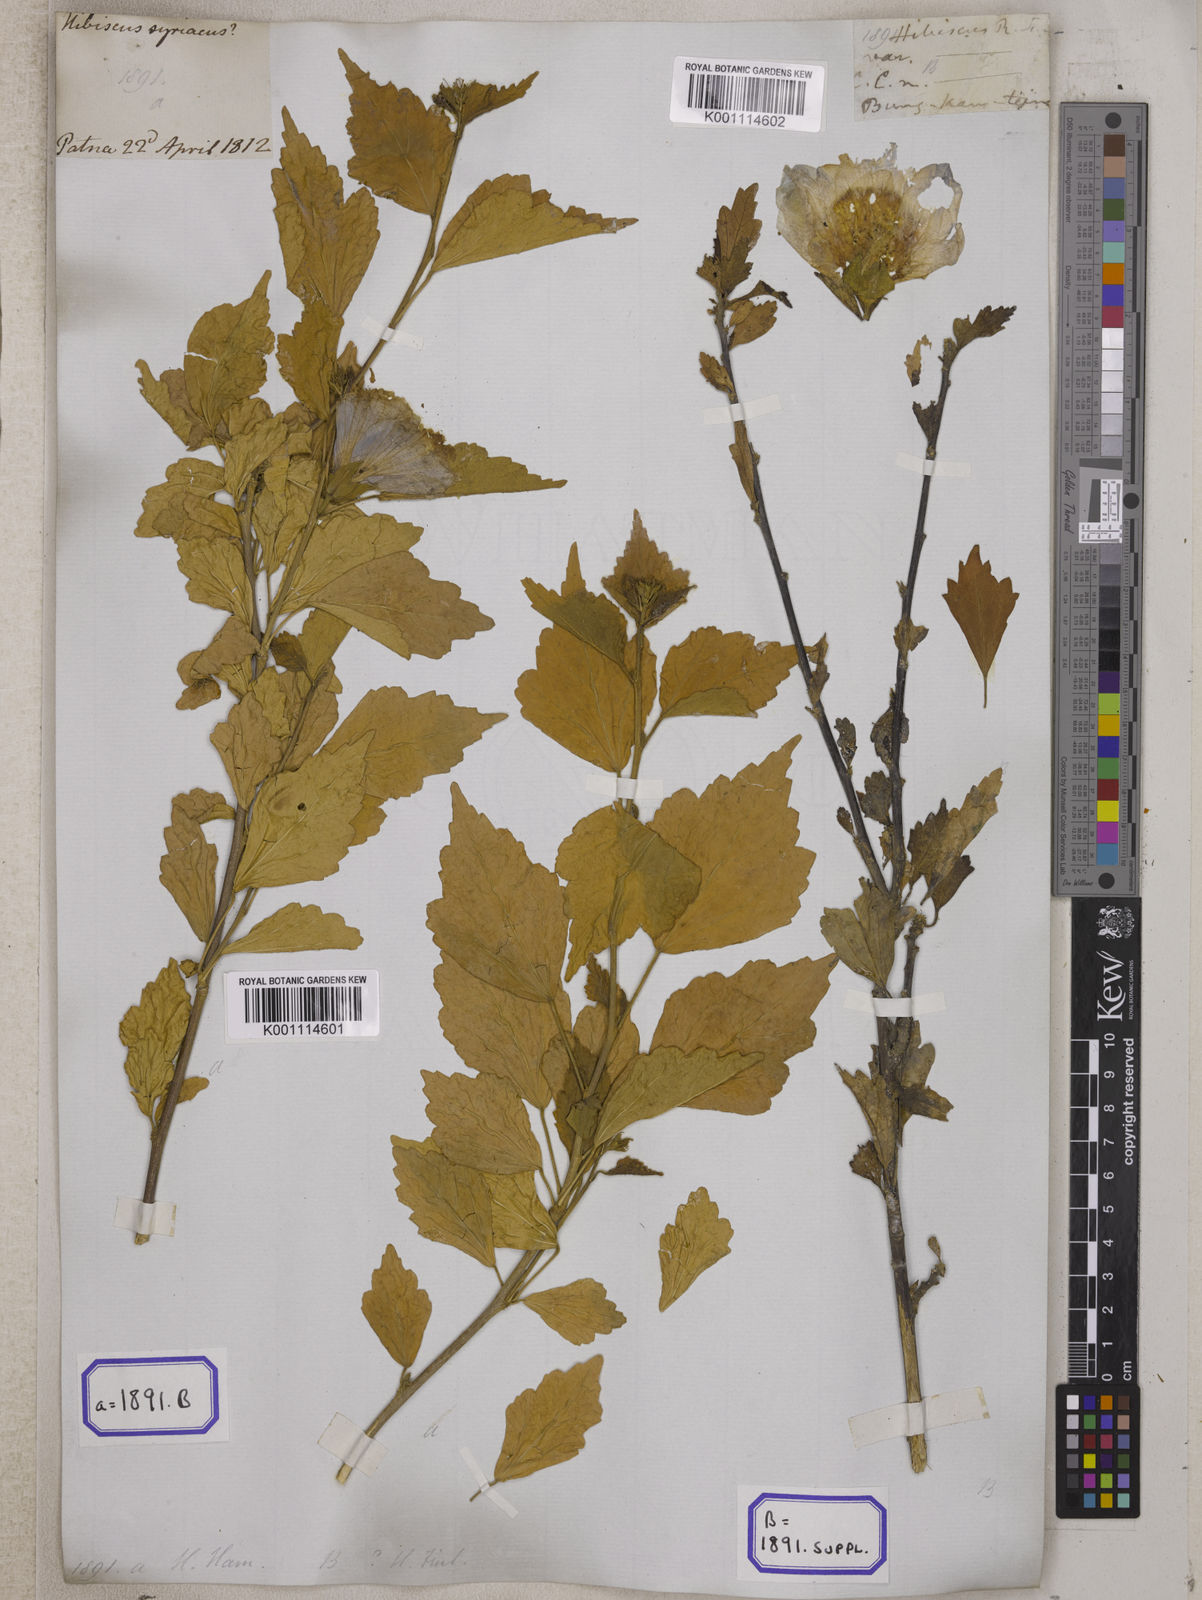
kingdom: Plantae
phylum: Tracheophyta
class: Magnoliopsida
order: Malvales
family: Malvaceae
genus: Hibiscus
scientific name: Hibiscus syriacus
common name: Syrian ketmia
